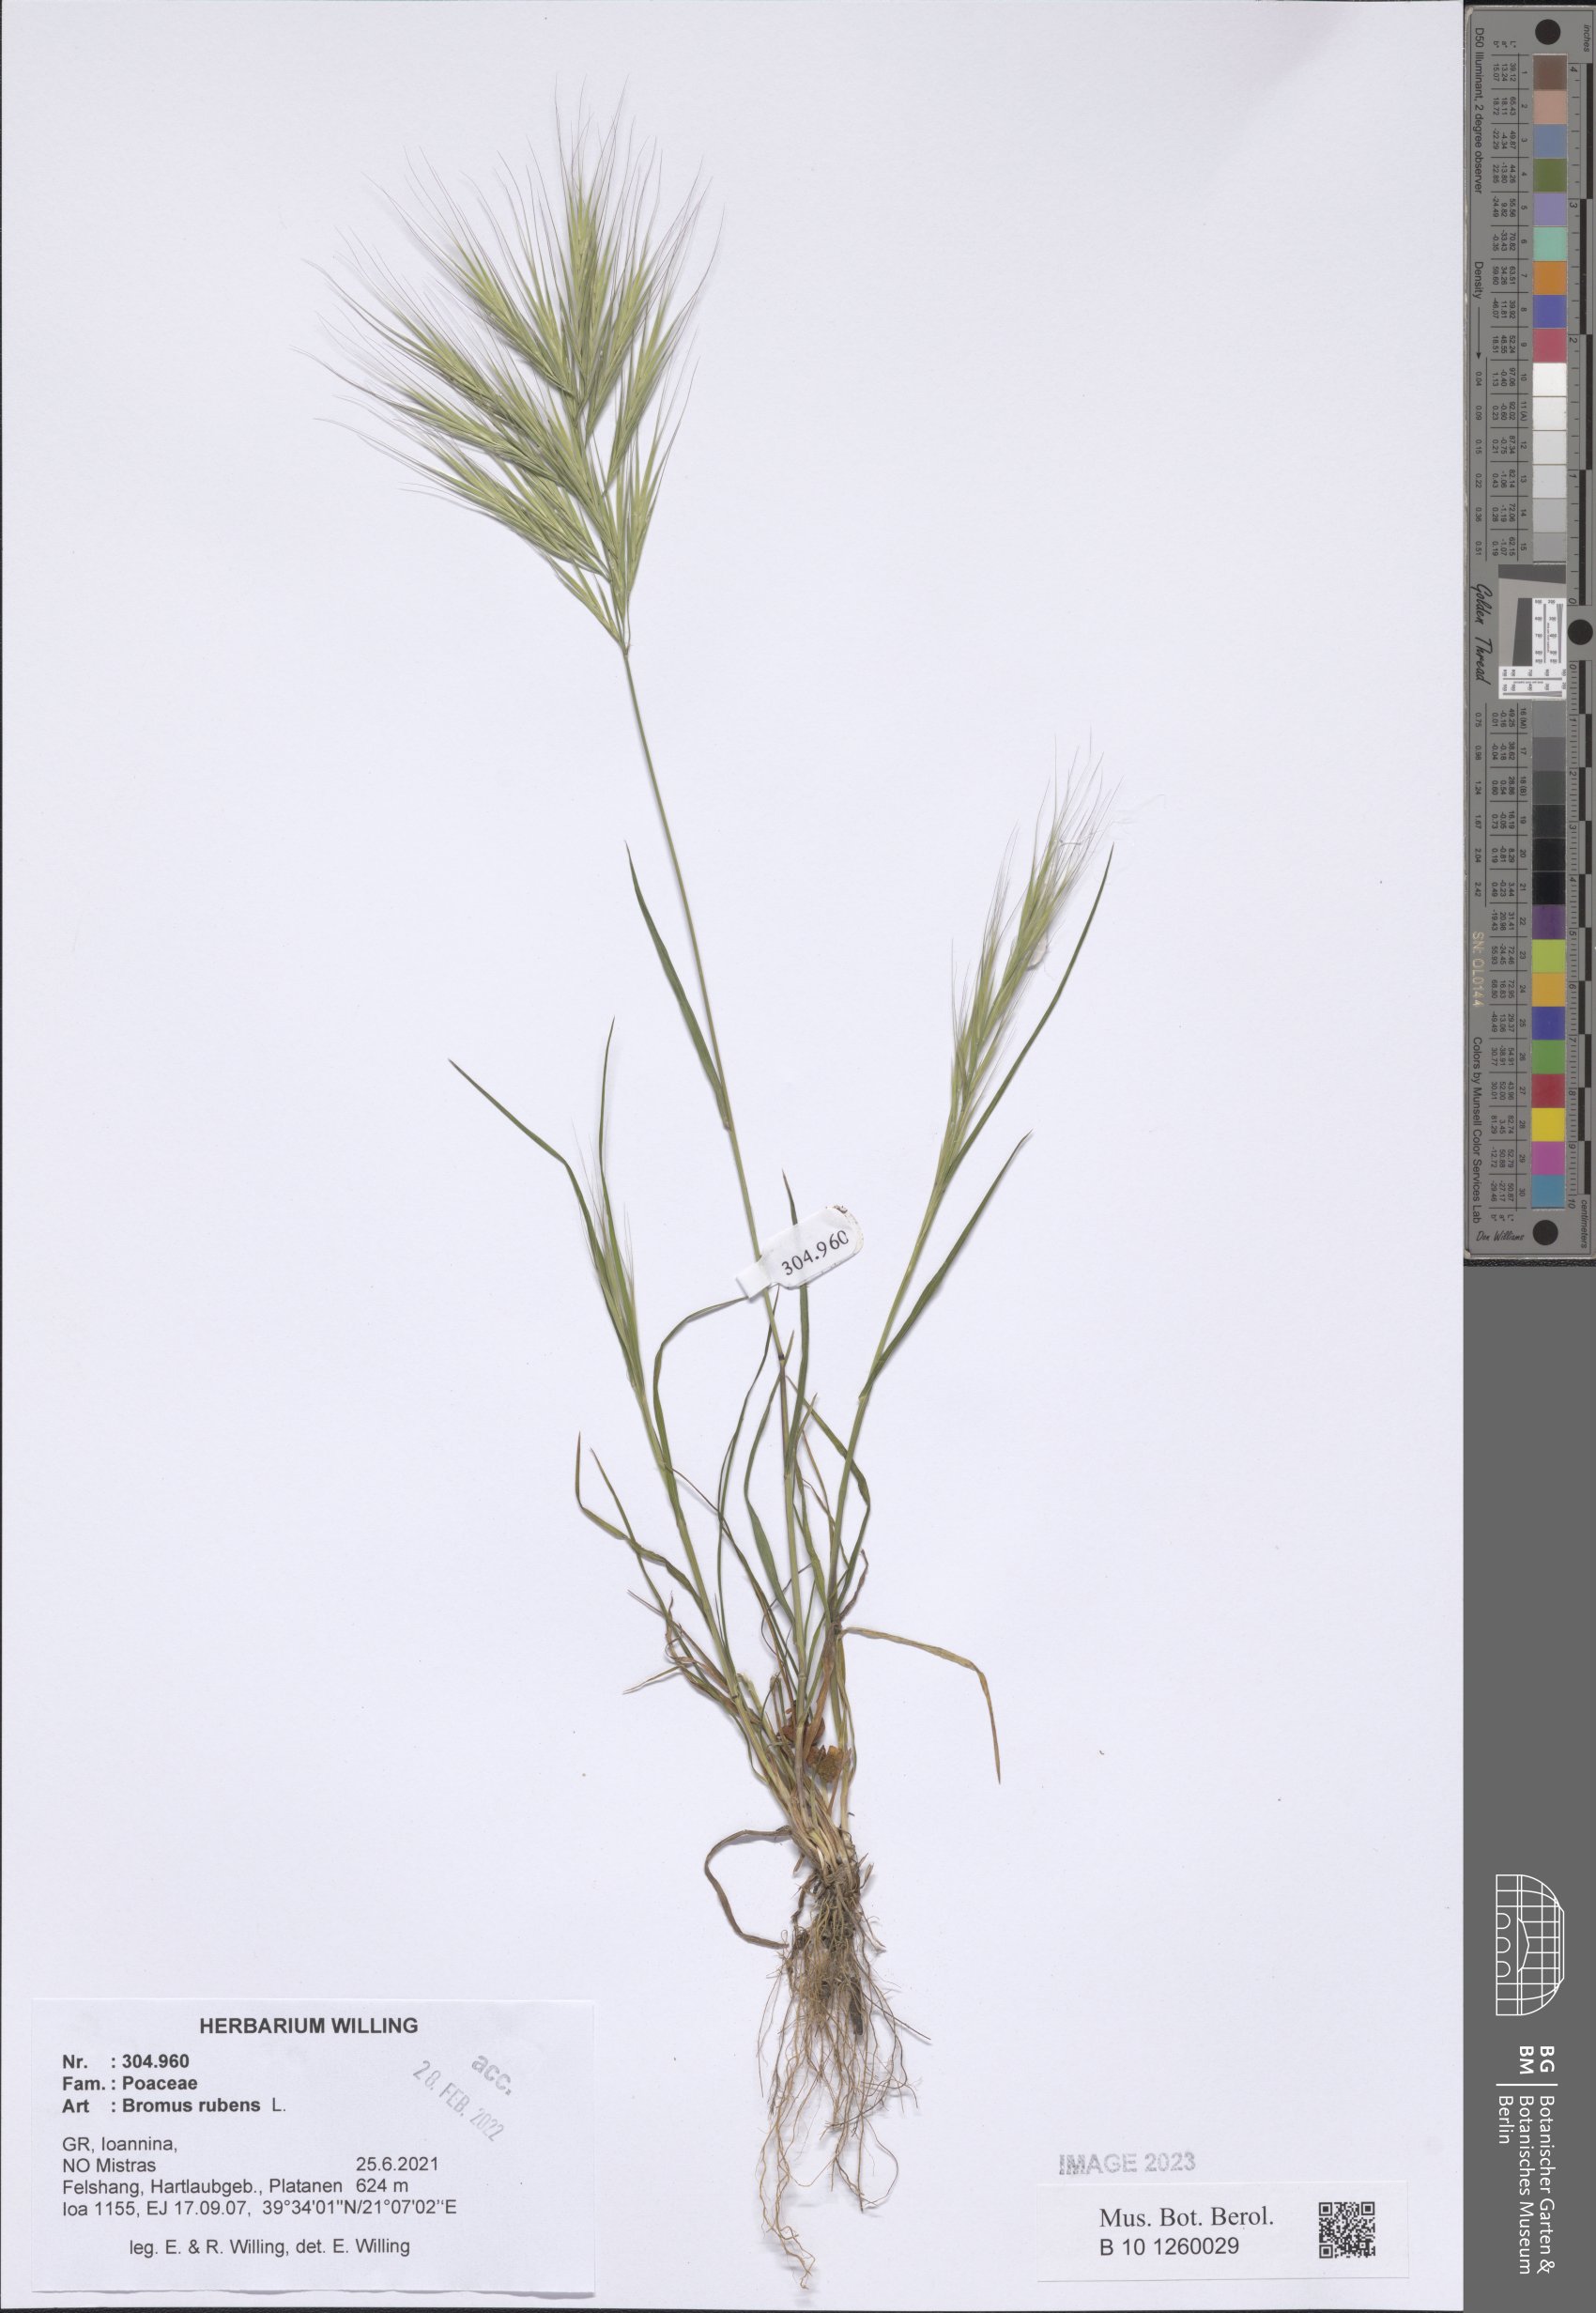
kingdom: Plantae
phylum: Tracheophyta
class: Liliopsida
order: Poales
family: Poaceae
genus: Bromus
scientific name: Bromus rubens
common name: Red brome
